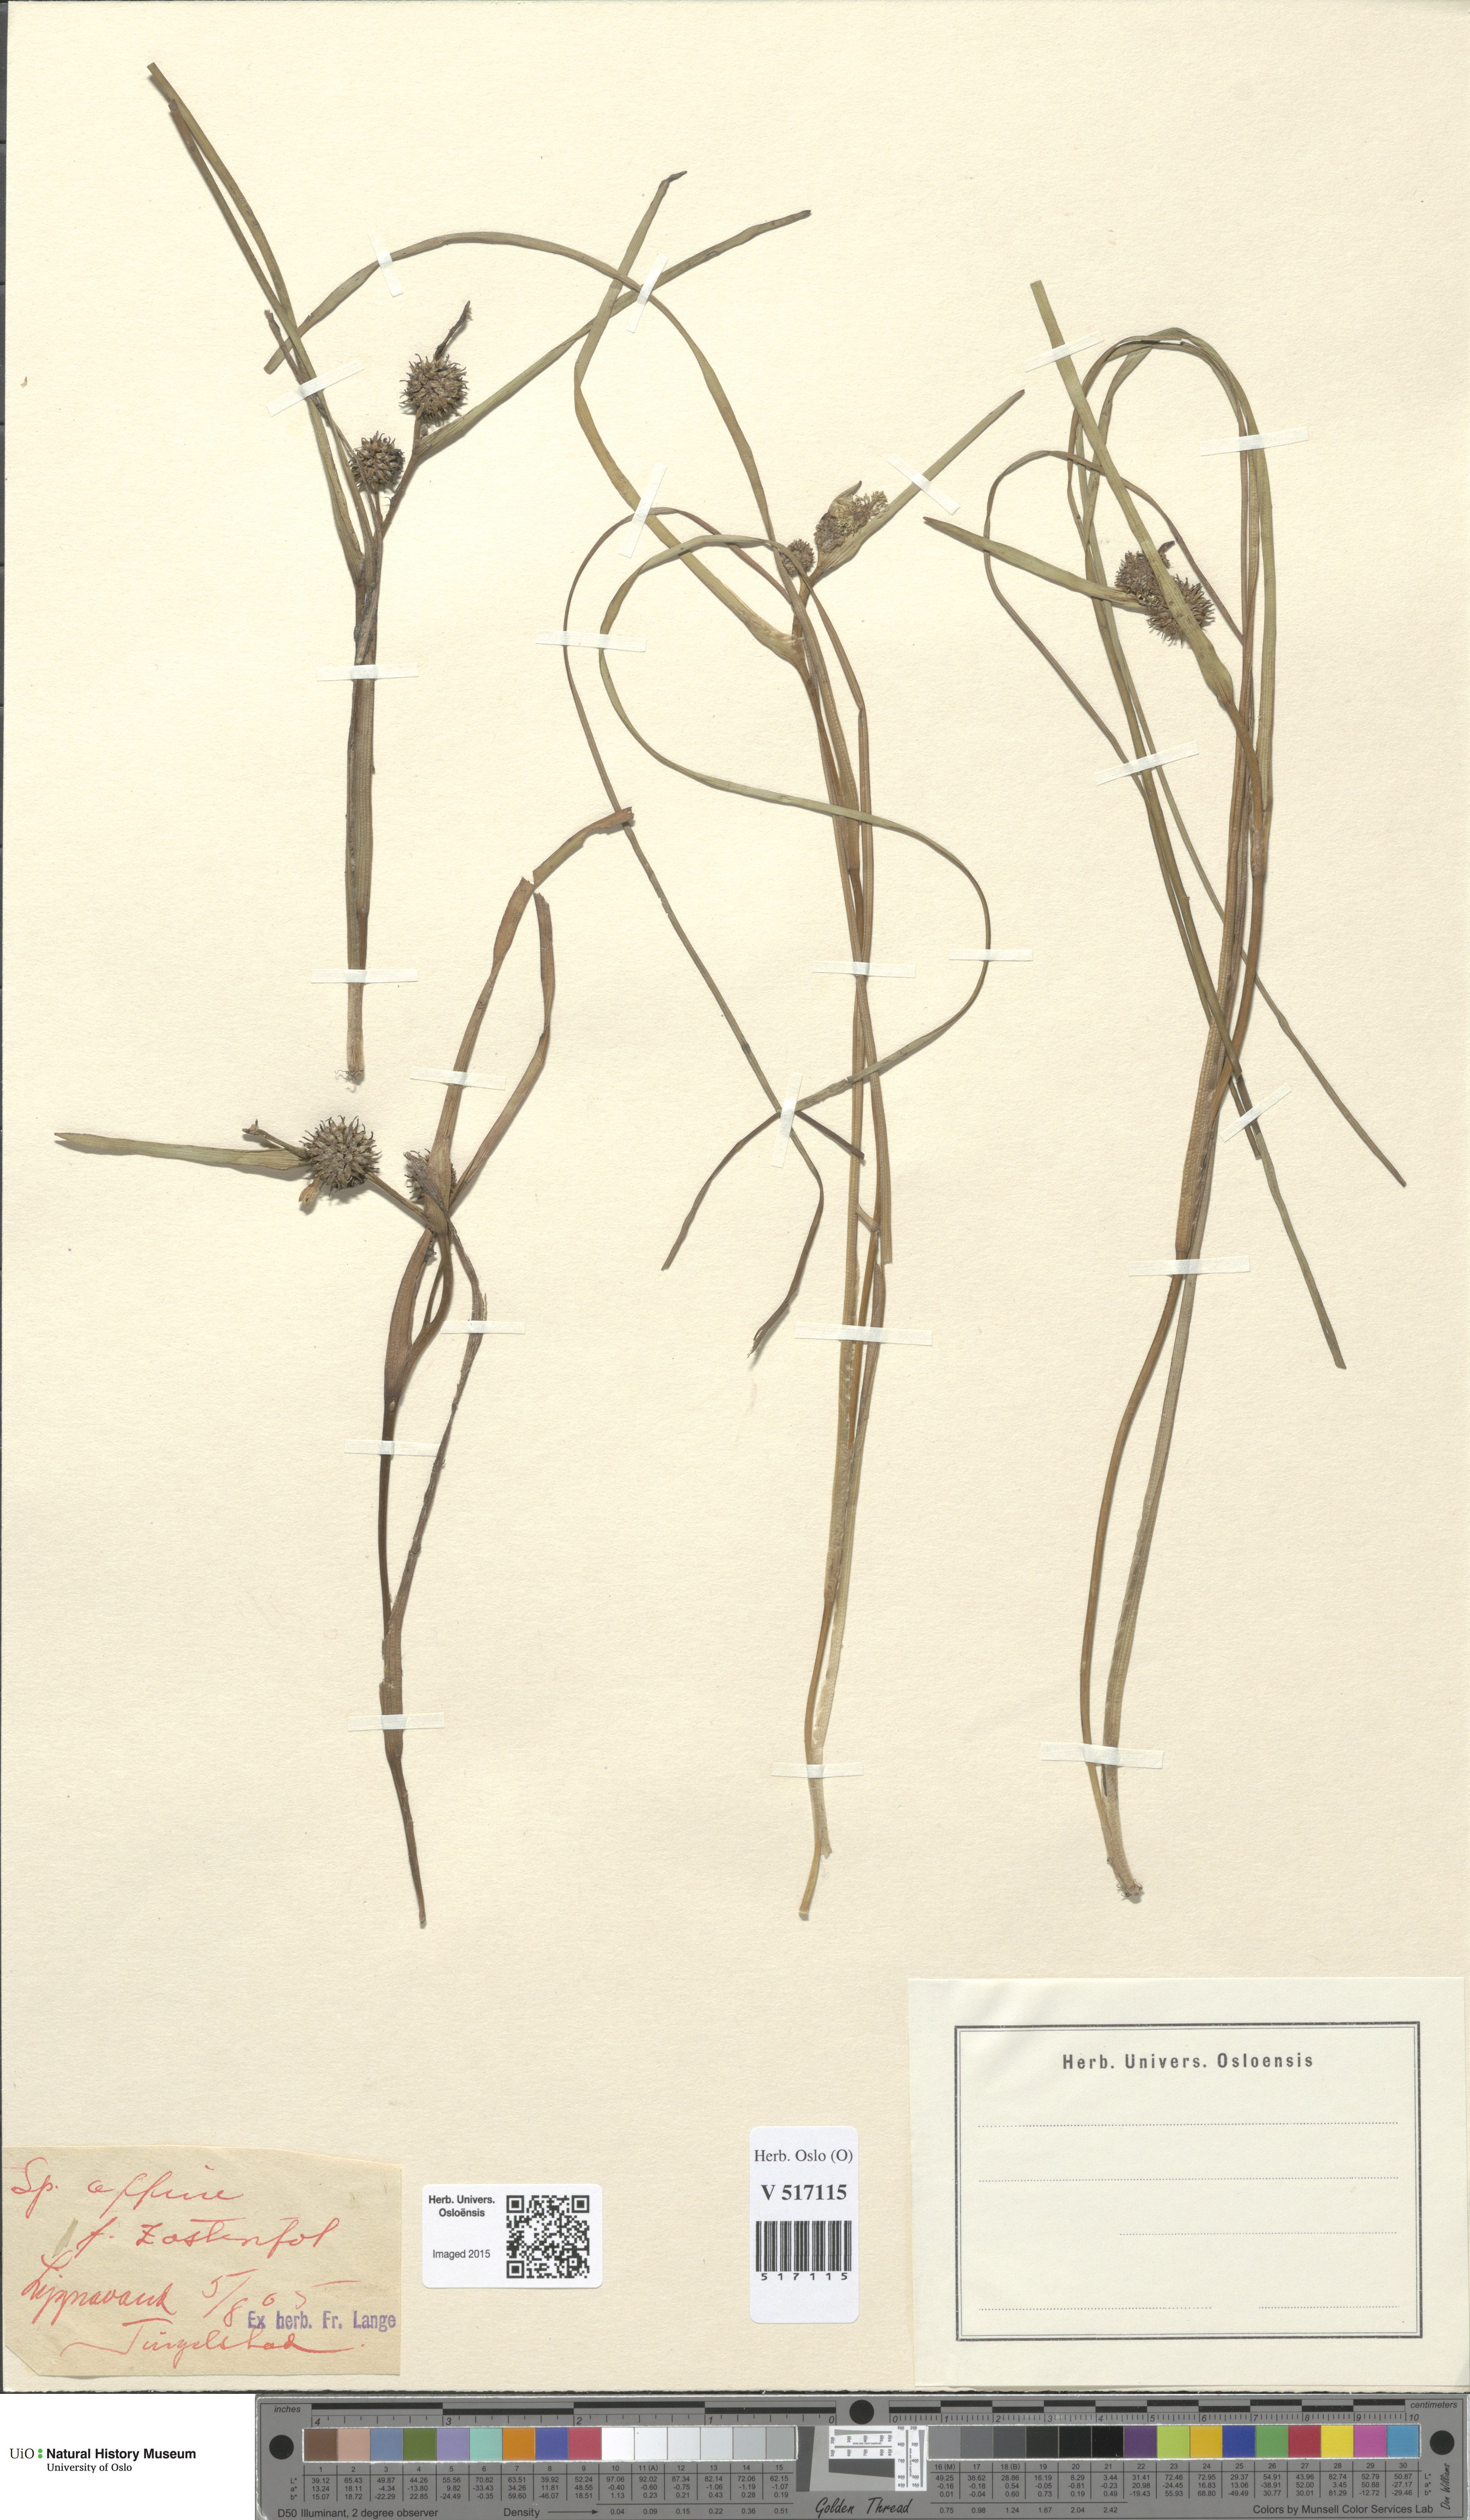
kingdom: Plantae
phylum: Tracheophyta
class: Liliopsida
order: Poales
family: Typhaceae
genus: Sparganium
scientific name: Sparganium angustifolium
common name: Floating bur-reed
